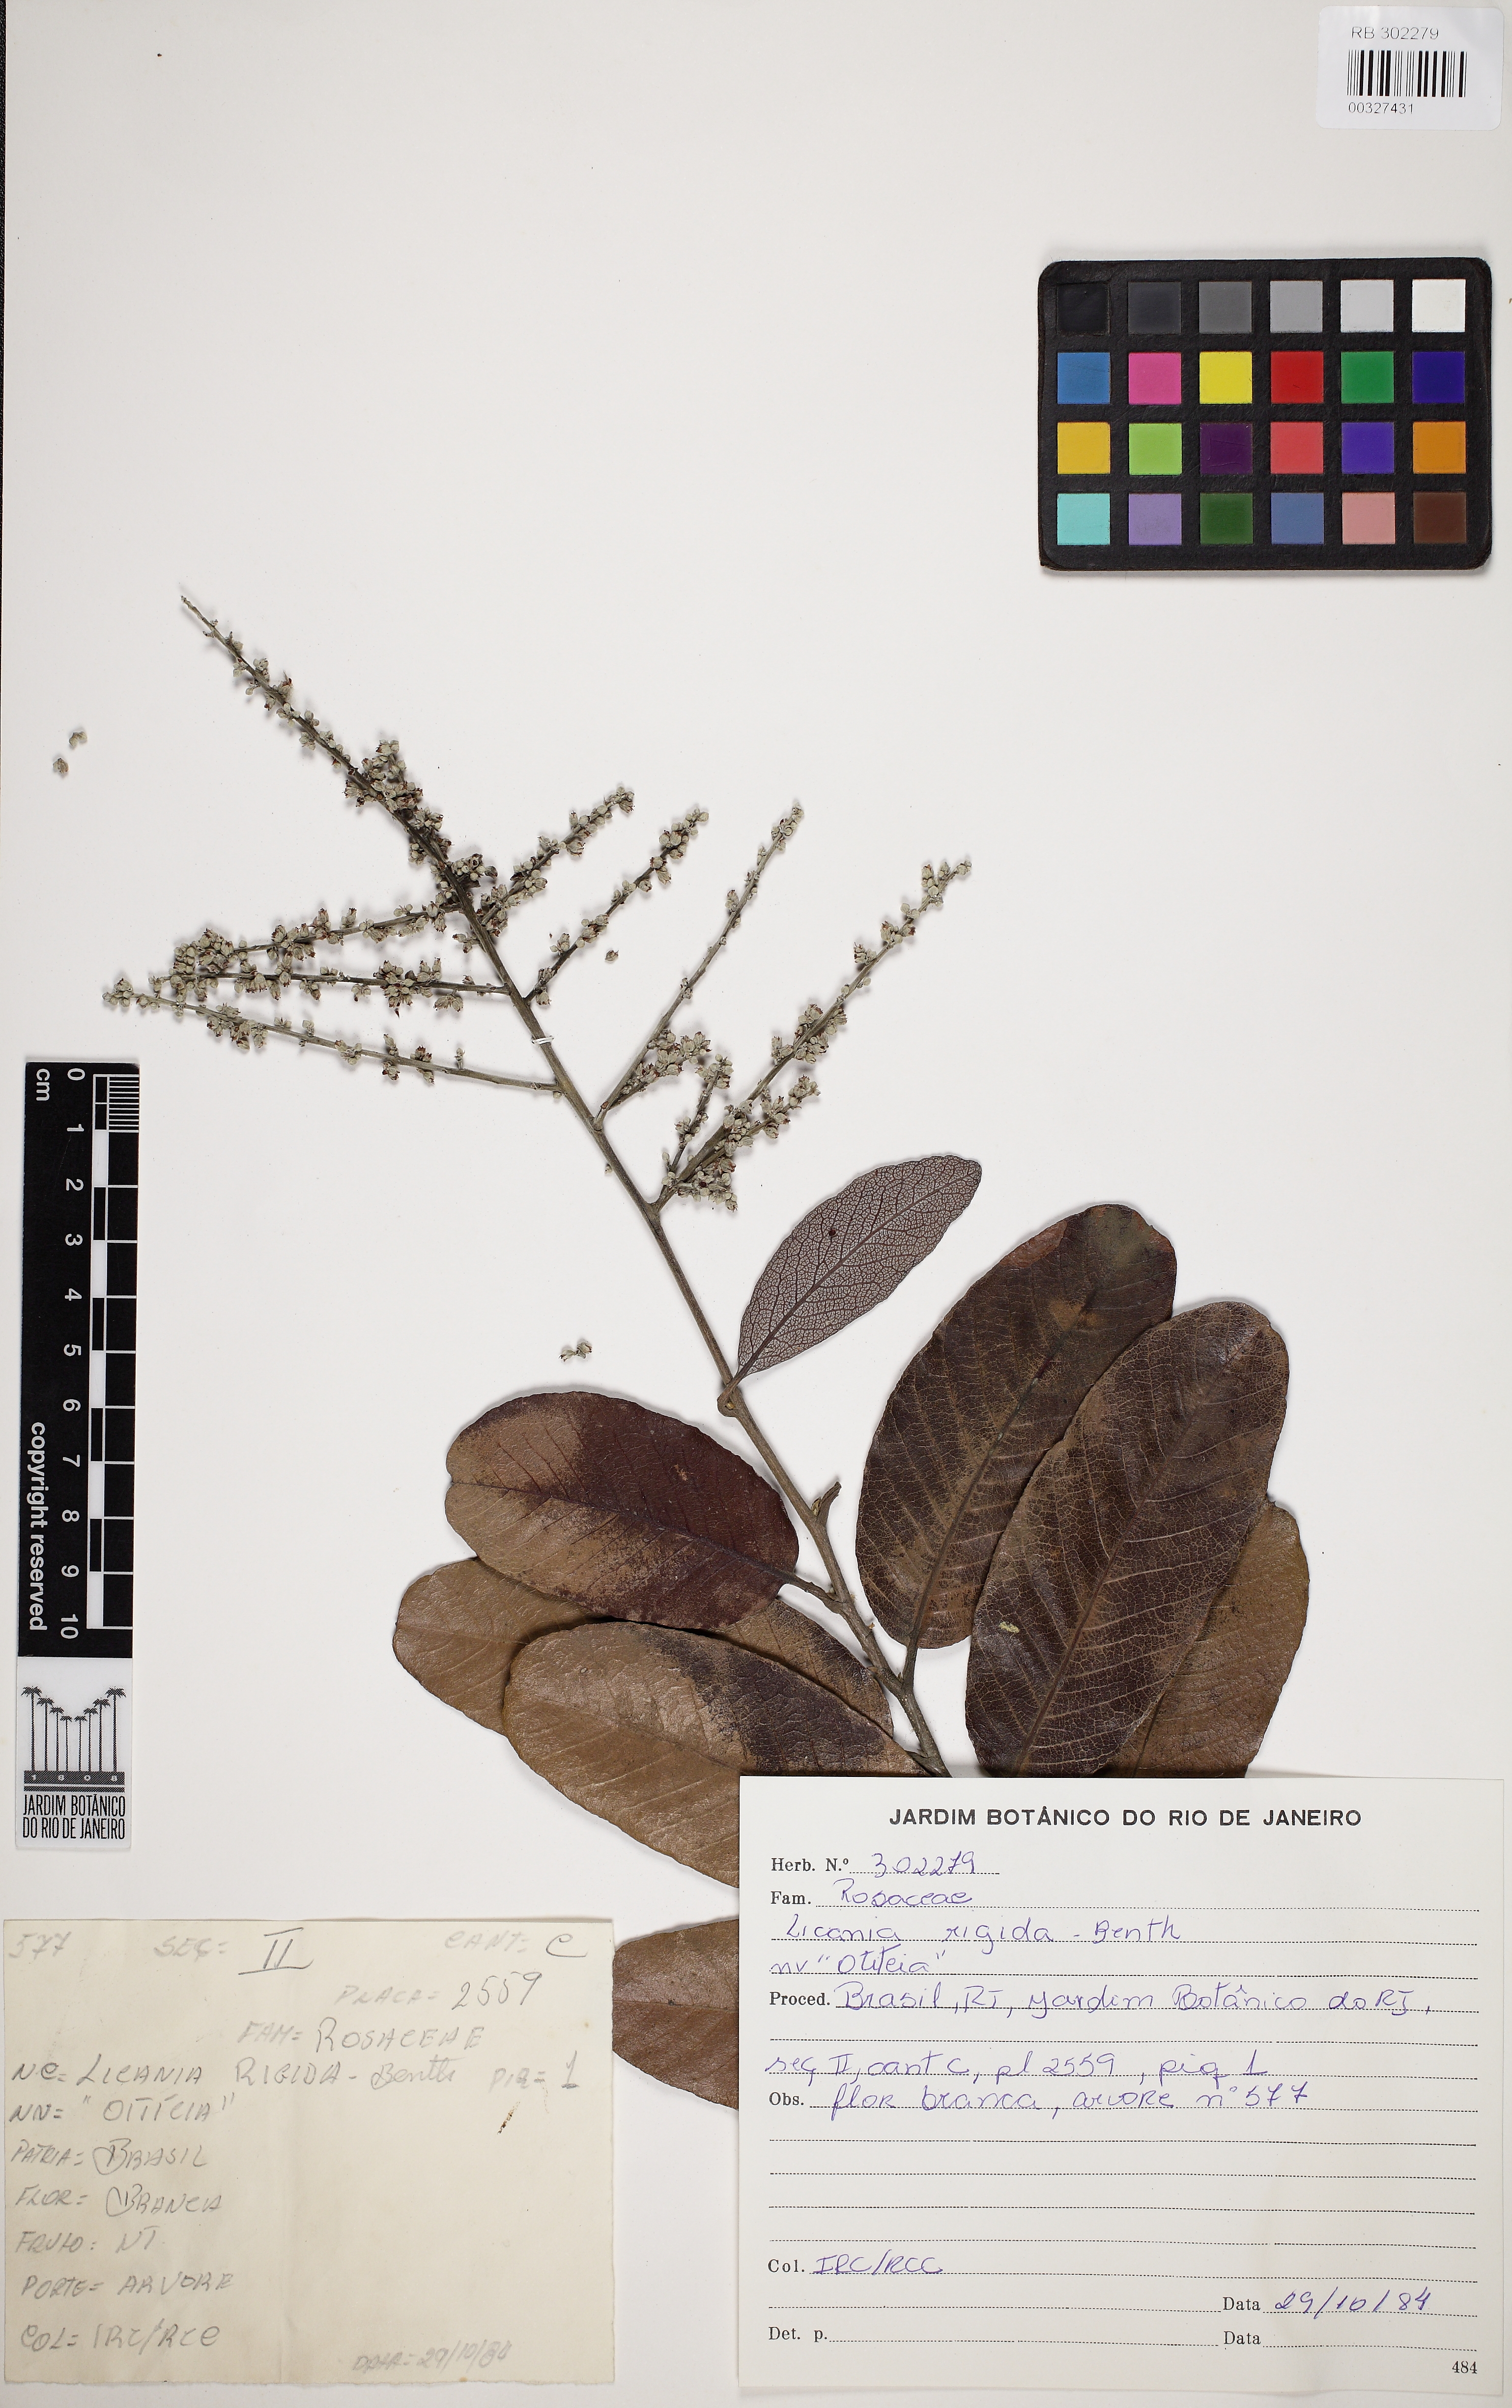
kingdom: Plantae
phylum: Tracheophyta
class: Magnoliopsida
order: Malpighiales
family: Chrysobalanaceae
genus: Microdesmia
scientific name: Microdesmia rigida
